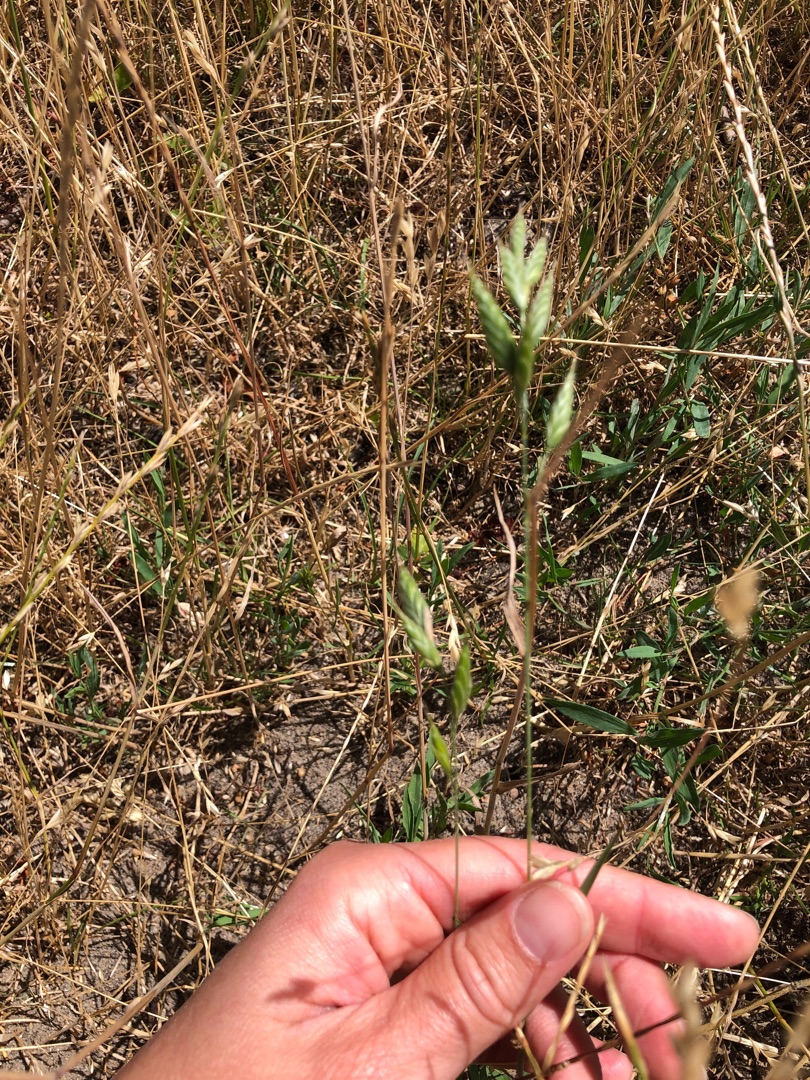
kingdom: Plantae
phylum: Tracheophyta
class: Liliopsida
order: Poales
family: Poaceae
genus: Bromus
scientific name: Bromus hordeaceus
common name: Blød hejre
